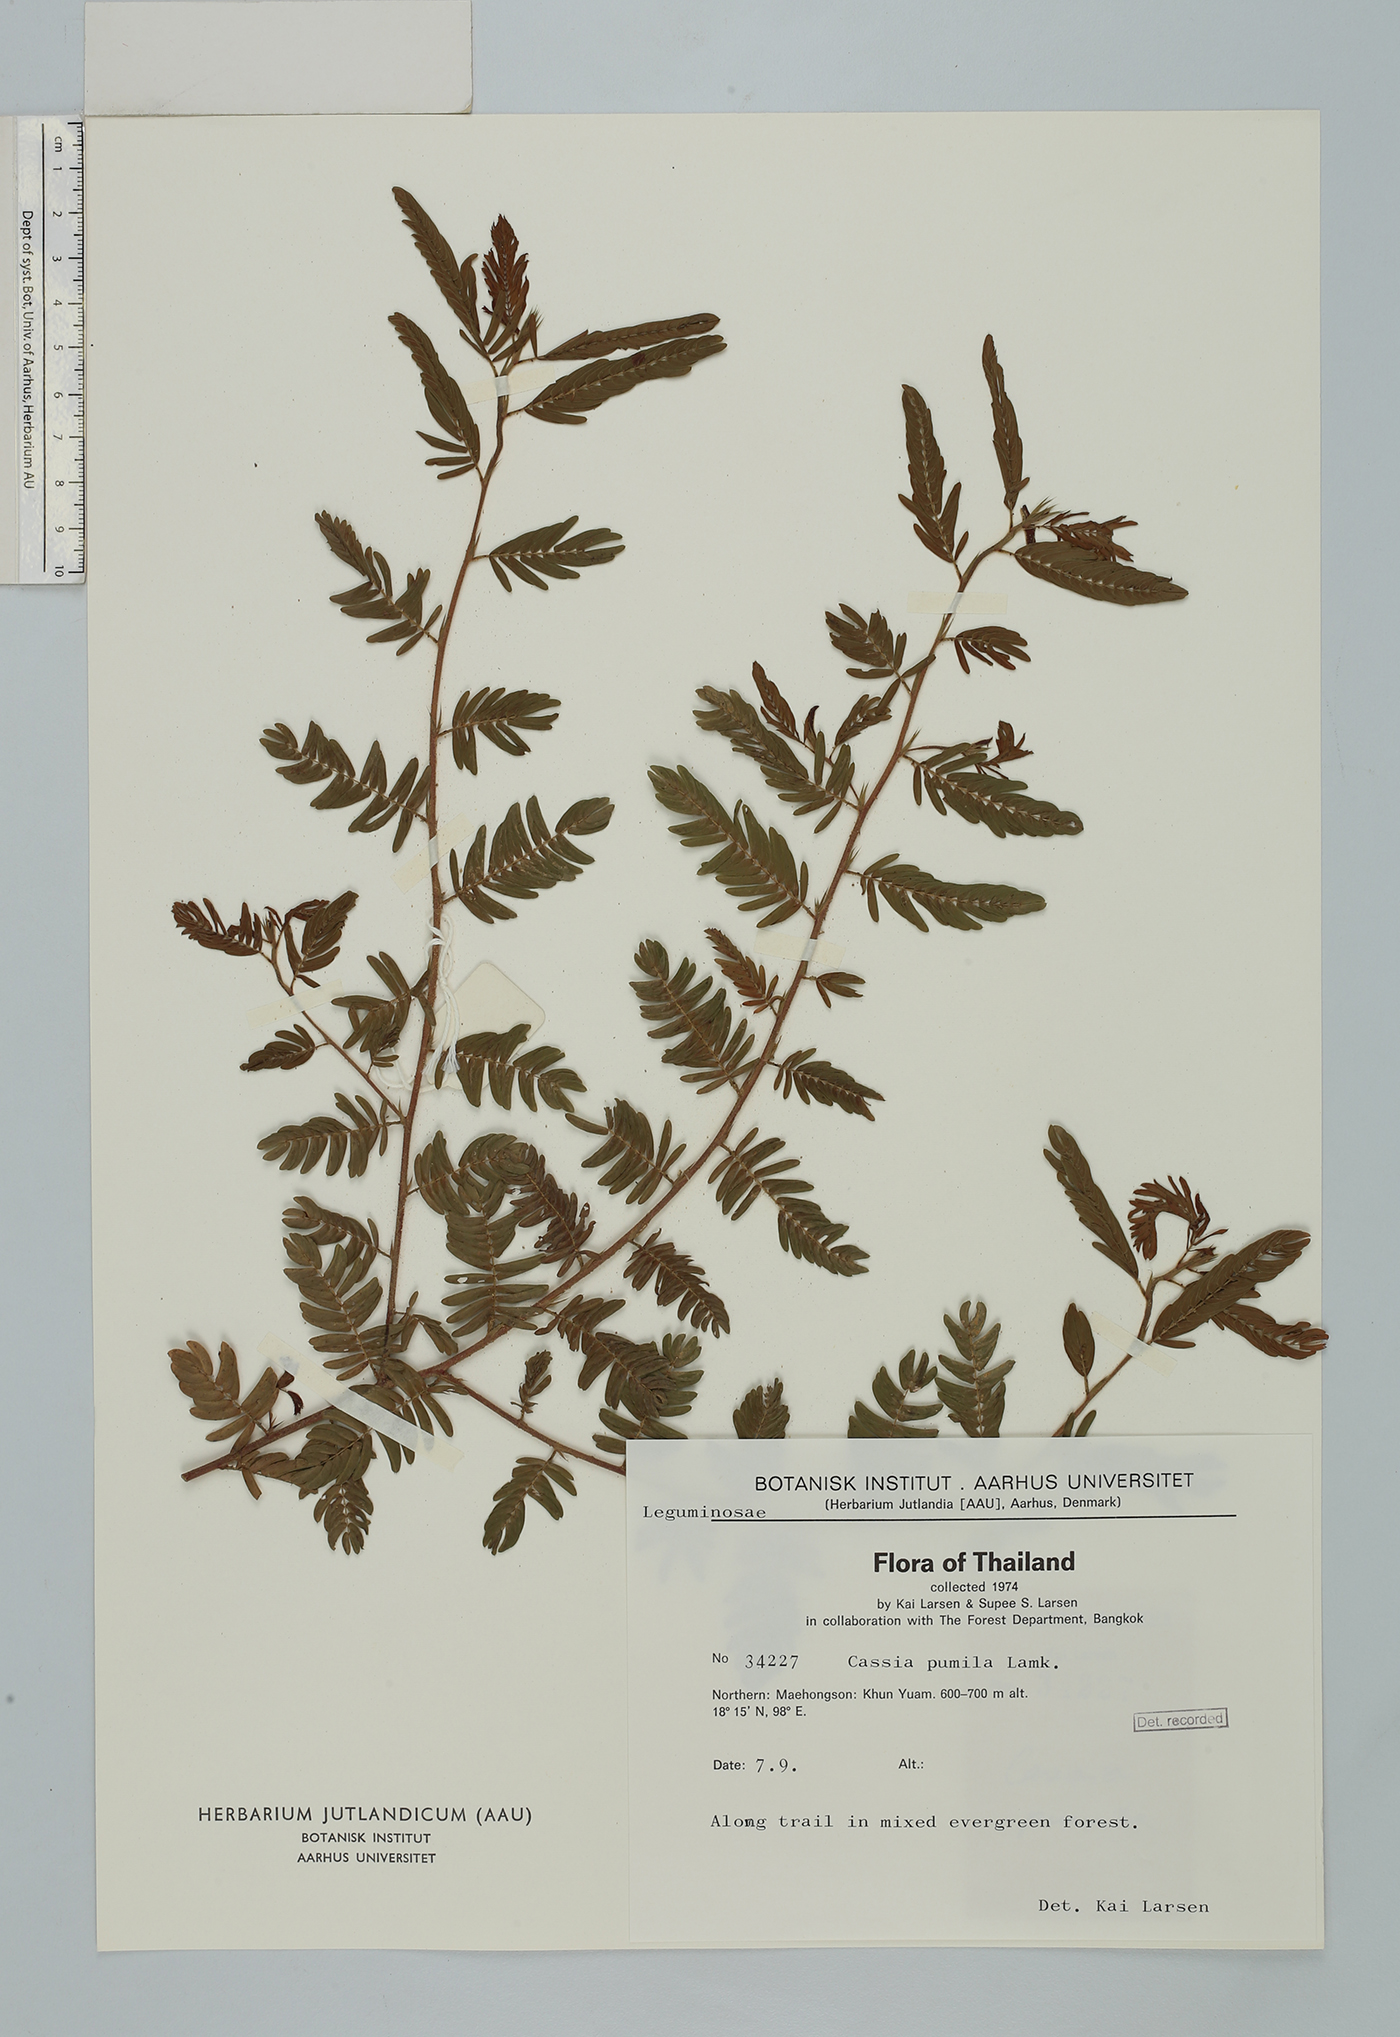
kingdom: Plantae
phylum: Tracheophyta
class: Magnoliopsida
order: Fabales
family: Fabaceae
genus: Chamaecrista
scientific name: Chamaecrista pumila
